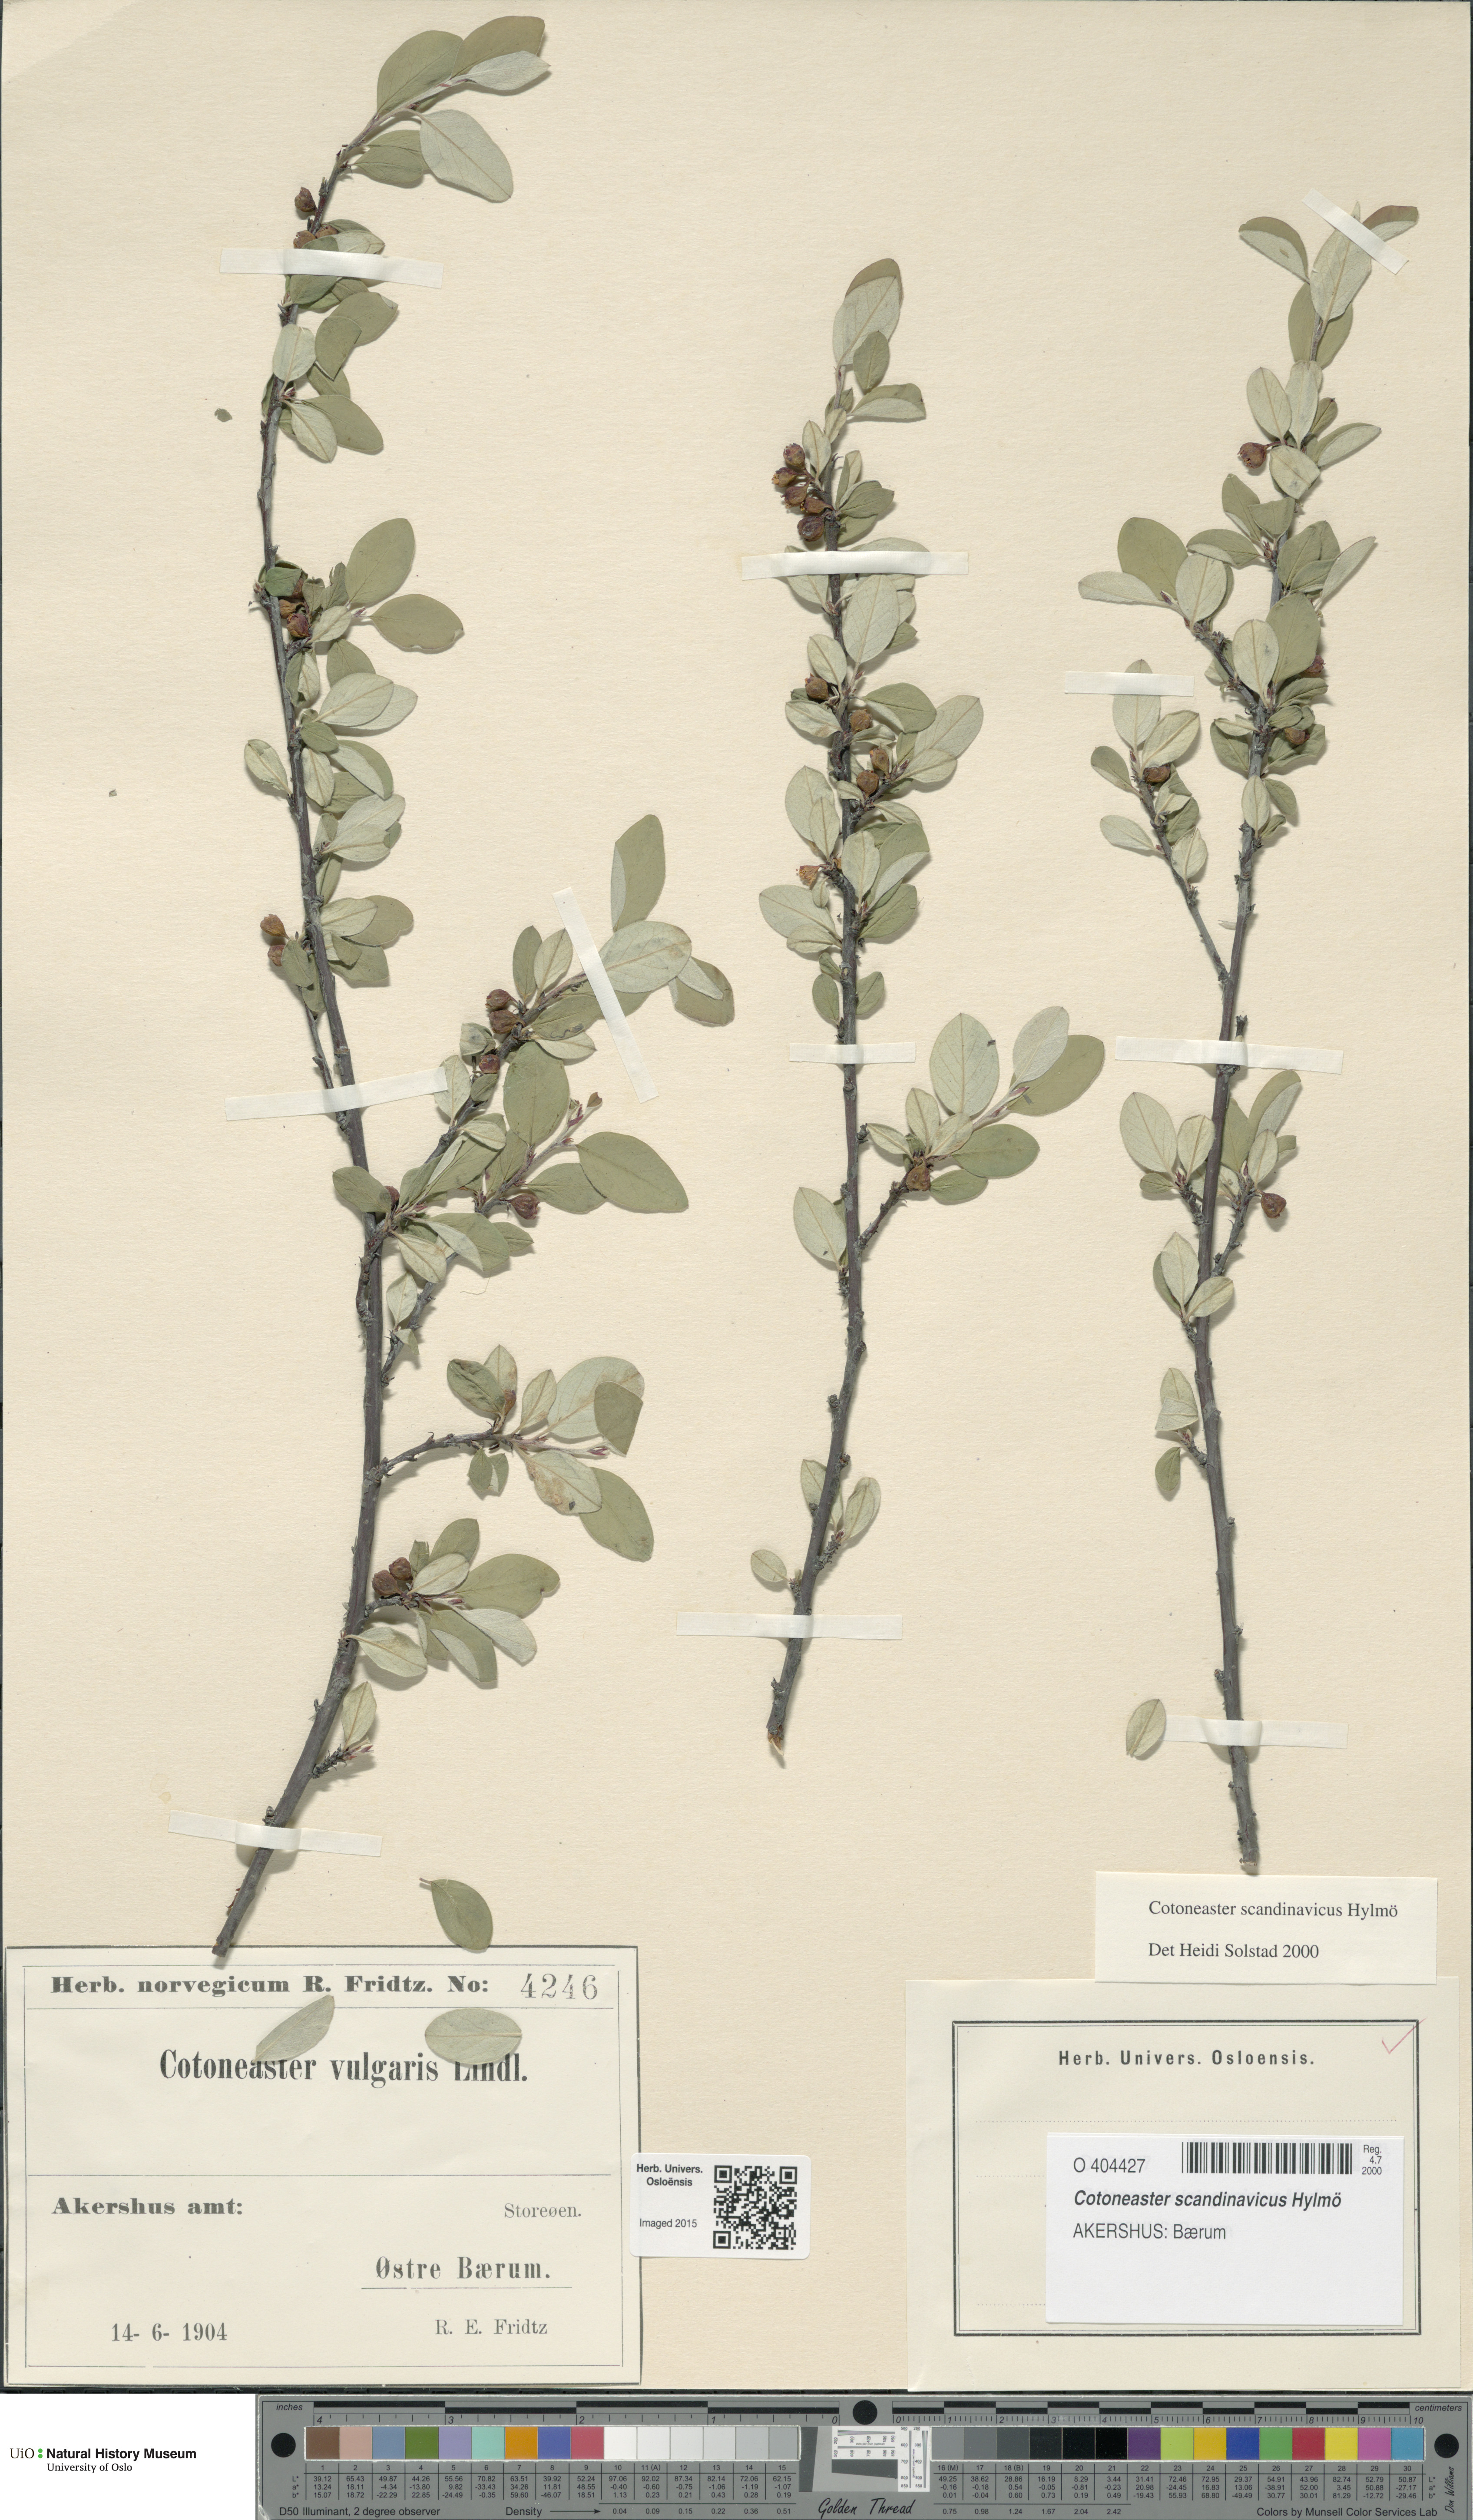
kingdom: Plantae
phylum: Tracheophyta
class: Magnoliopsida
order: Rosales
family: Rosaceae
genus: Cotoneaster
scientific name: Cotoneaster integerrimus
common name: Wild cotoneaster
